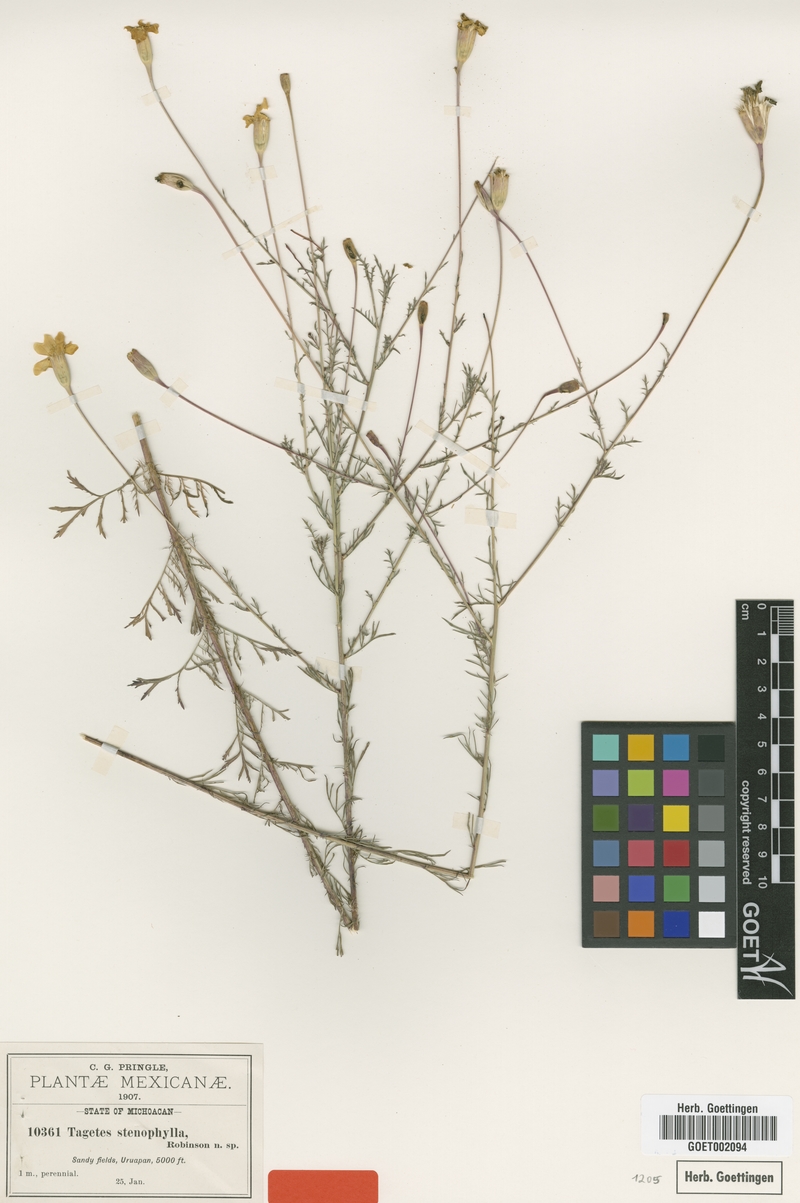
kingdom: Plantae
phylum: Tracheophyta
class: Magnoliopsida
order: Asterales
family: Asteraceae
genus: Tagetes
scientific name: Tagetes stenophylla
